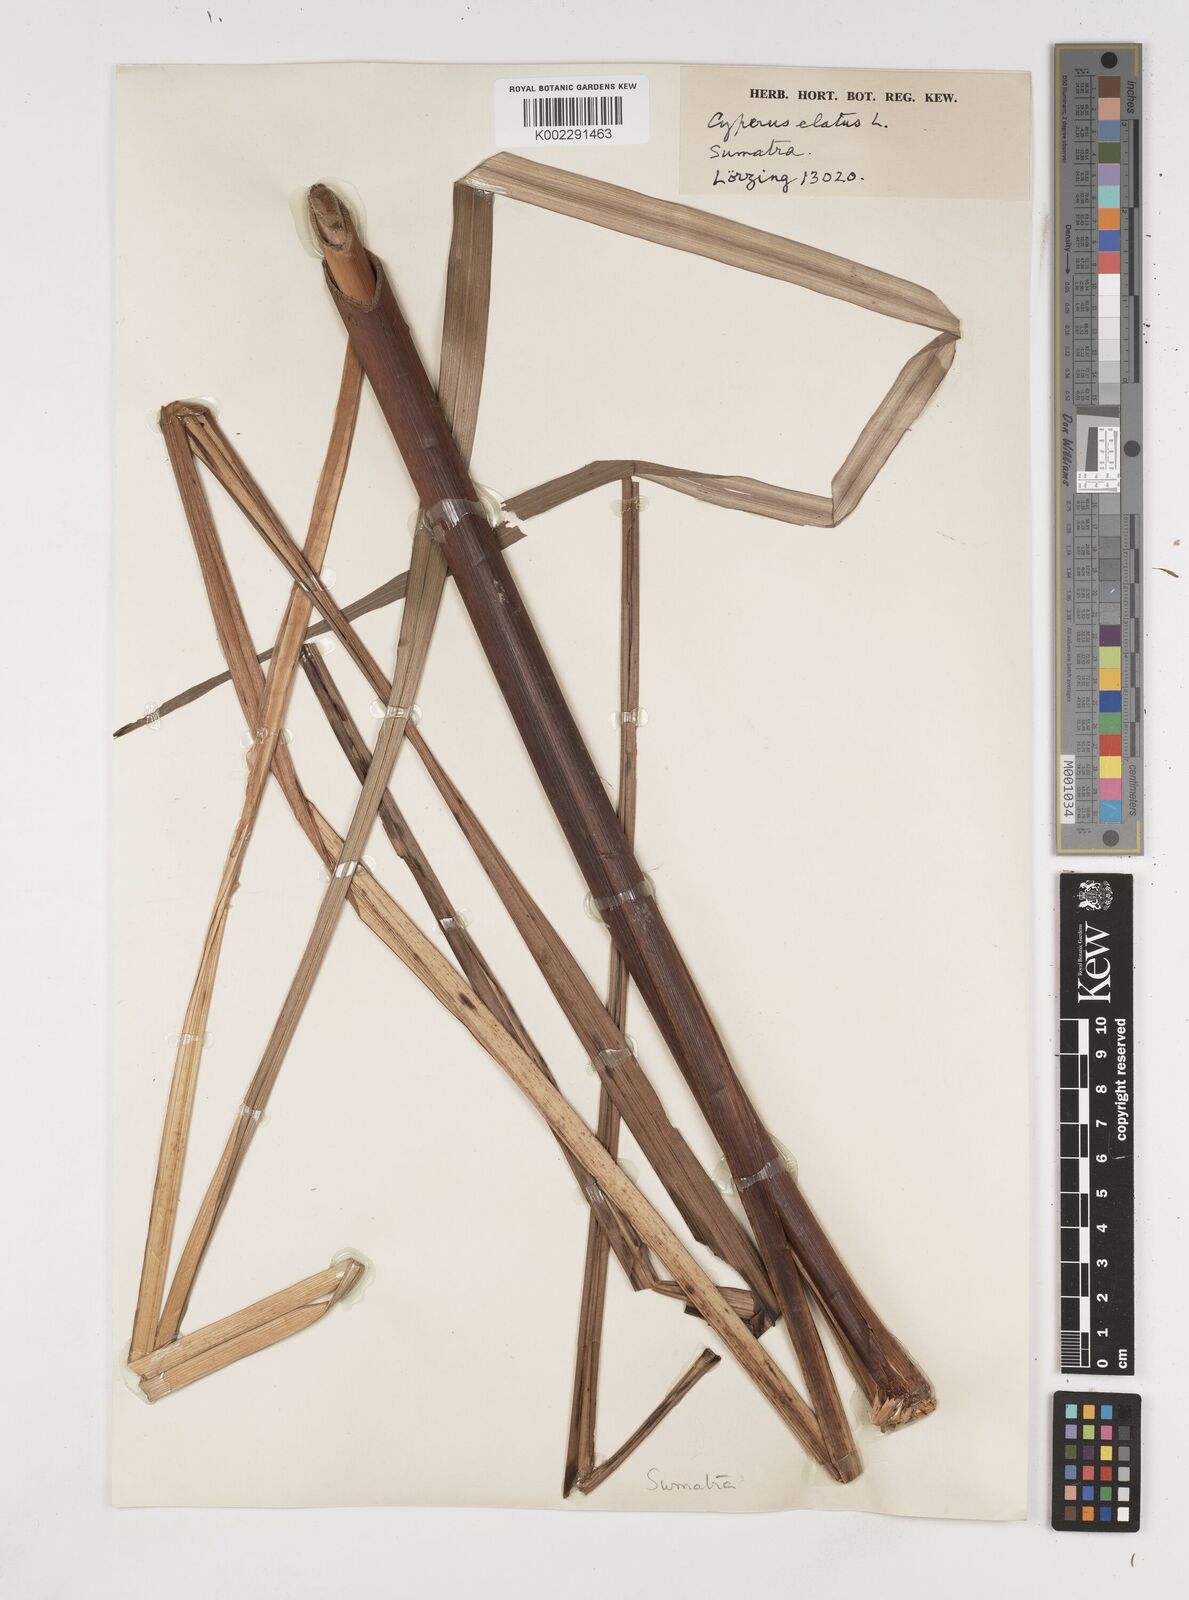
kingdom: Plantae
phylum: Tracheophyta
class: Liliopsida
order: Poales
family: Cyperaceae
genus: Cyperus
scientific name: Cyperus elatus
